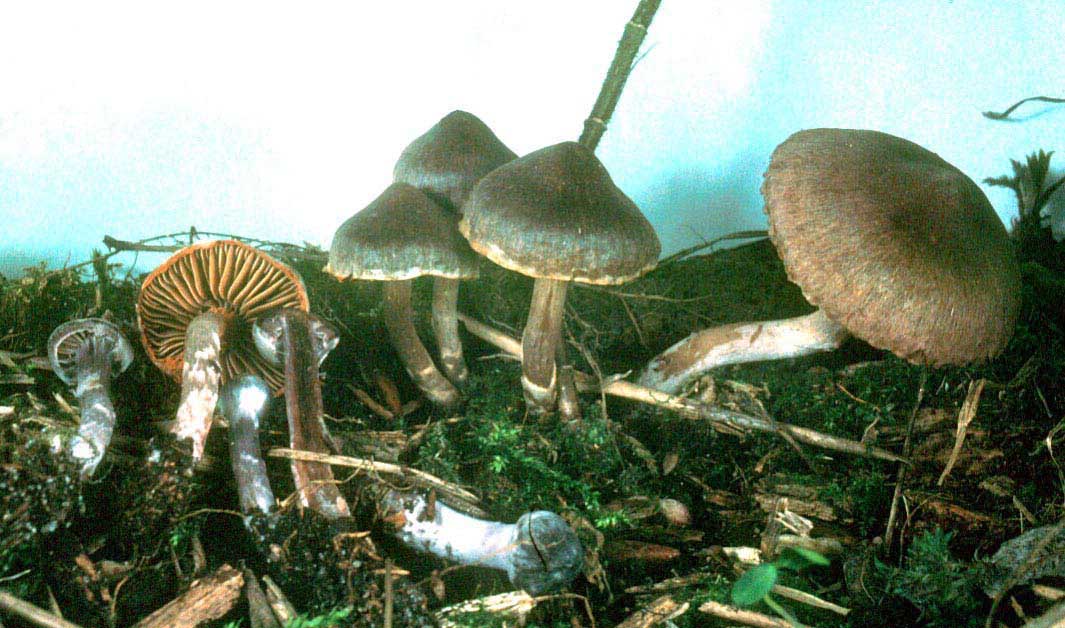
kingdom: Fungi
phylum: Basidiomycota
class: Agaricomycetes
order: Agaricales
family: Cortinariaceae
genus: Cortinarius
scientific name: Cortinarius griseocarneus
